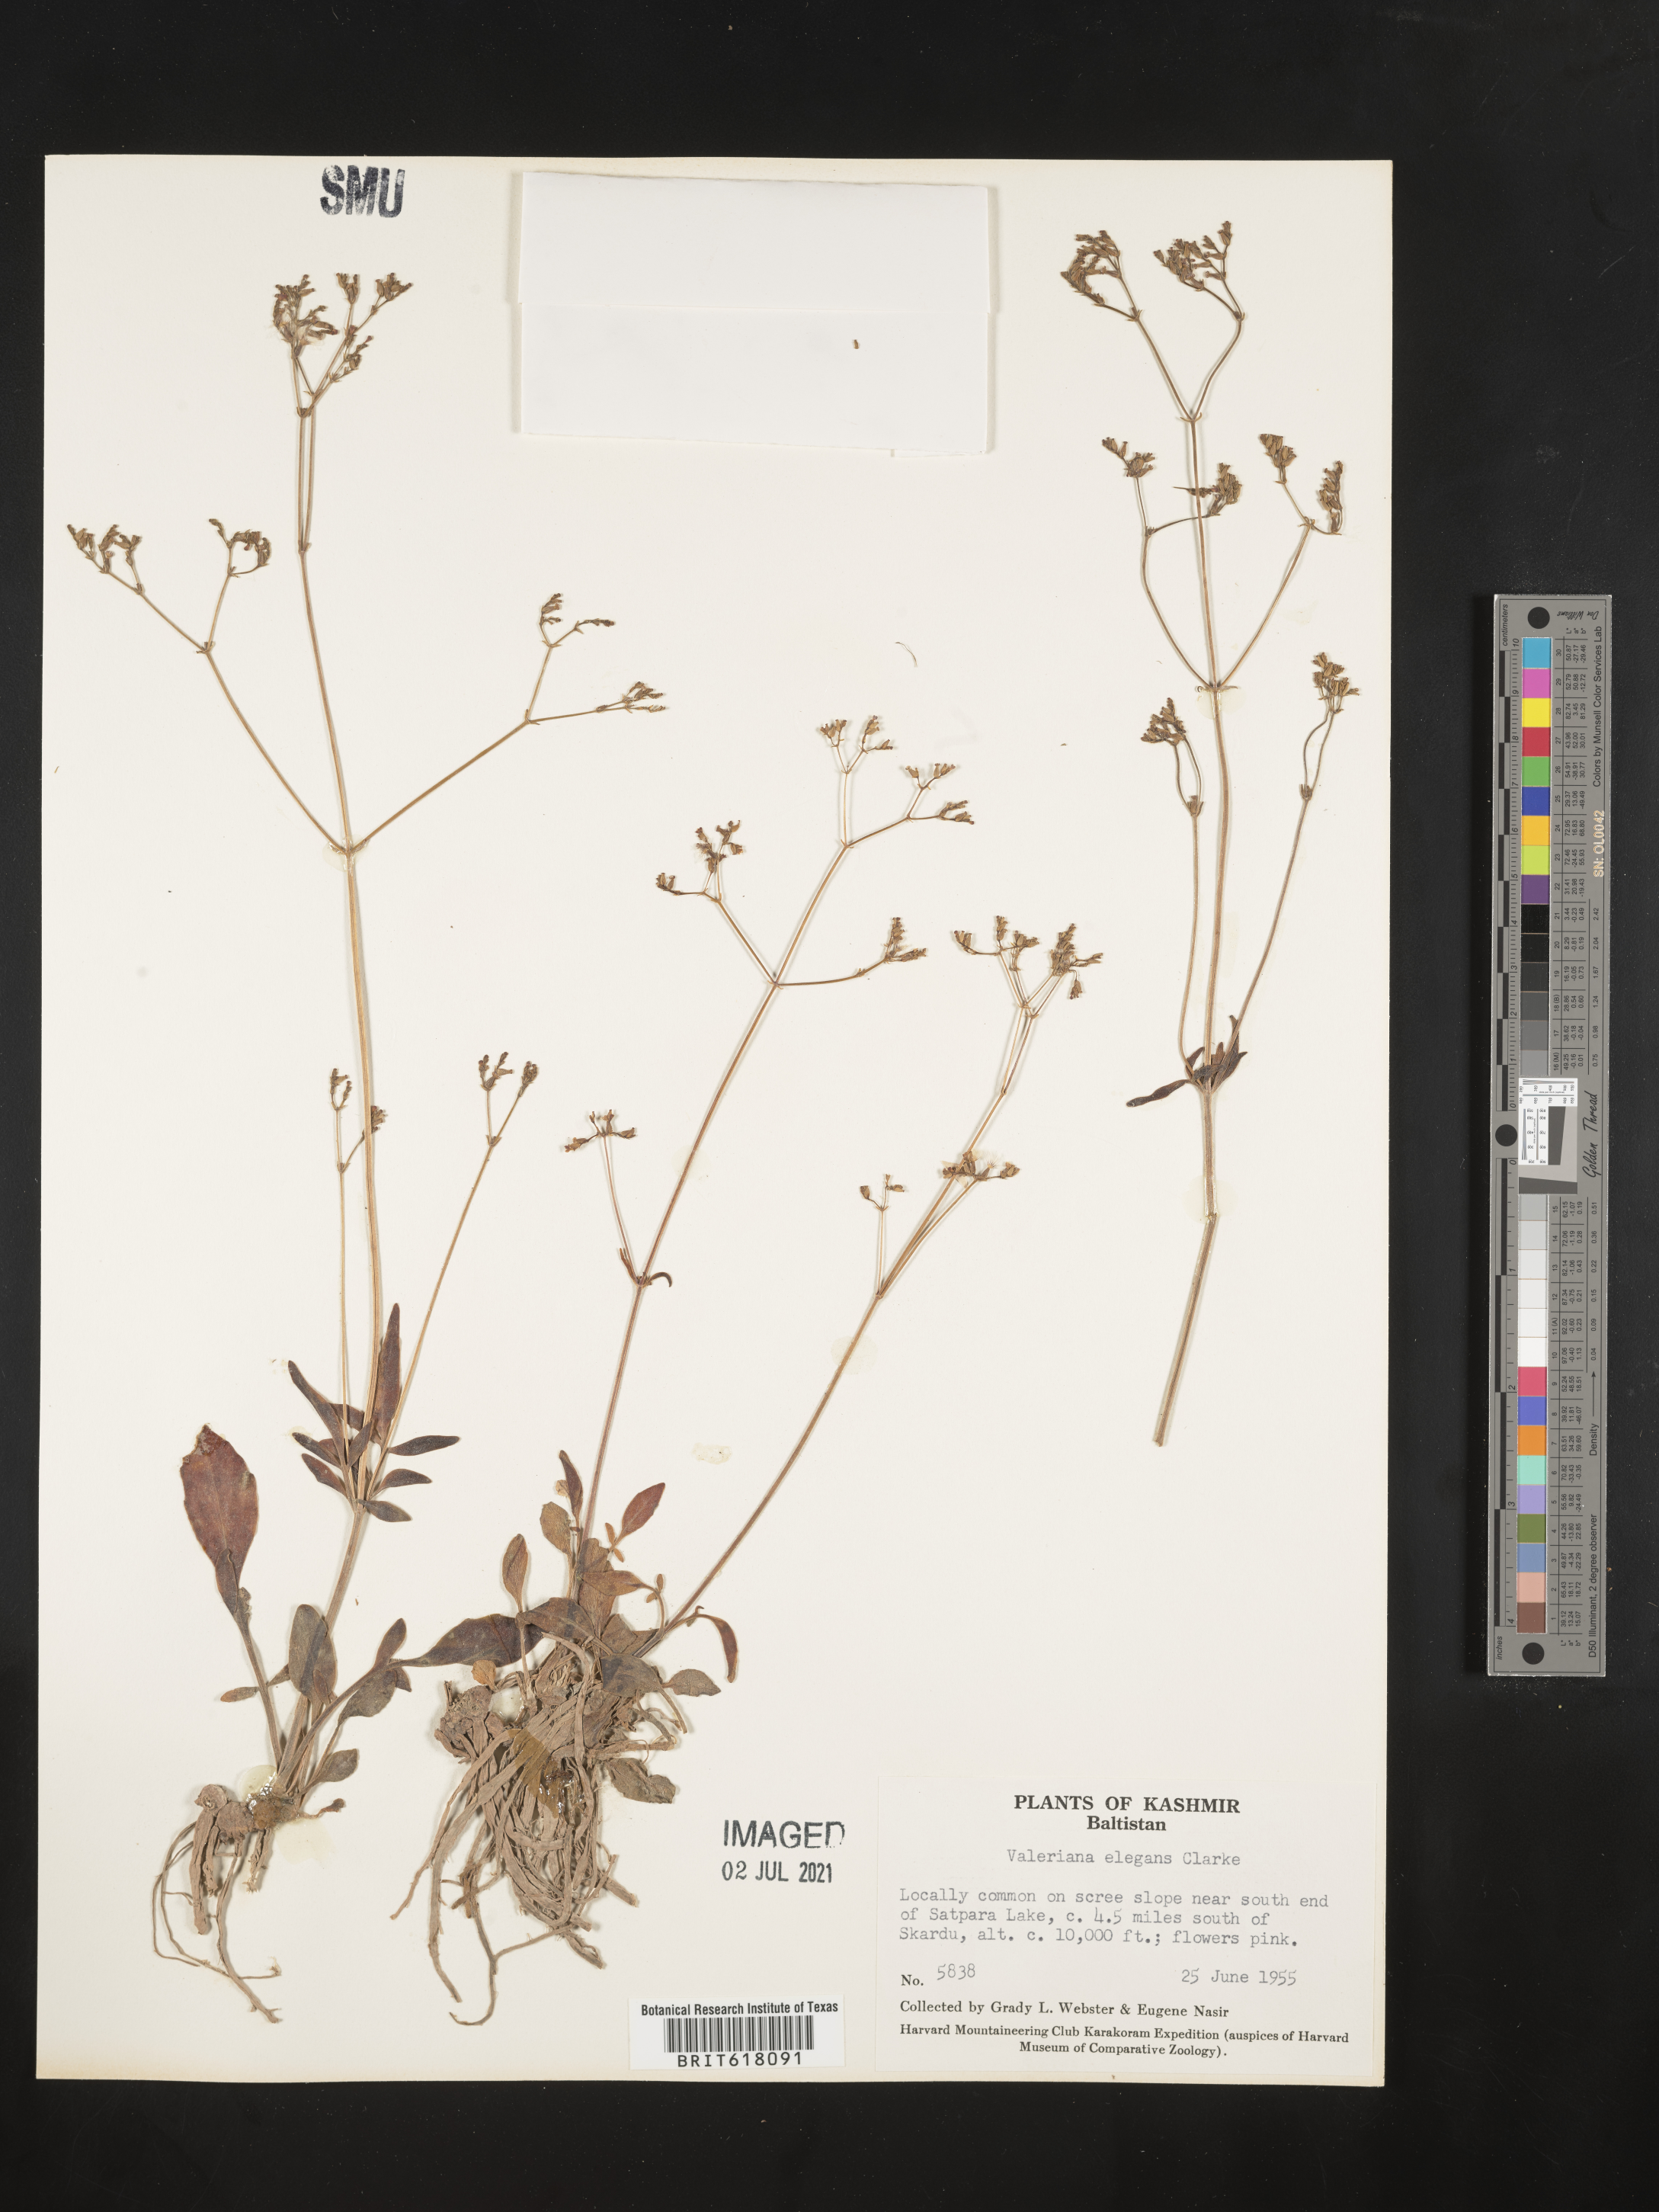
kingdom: Plantae
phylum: Tracheophyta
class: Magnoliopsida
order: Dipsacales
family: Caprifoliaceae
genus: Valeriana
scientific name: Valeriana stricta
